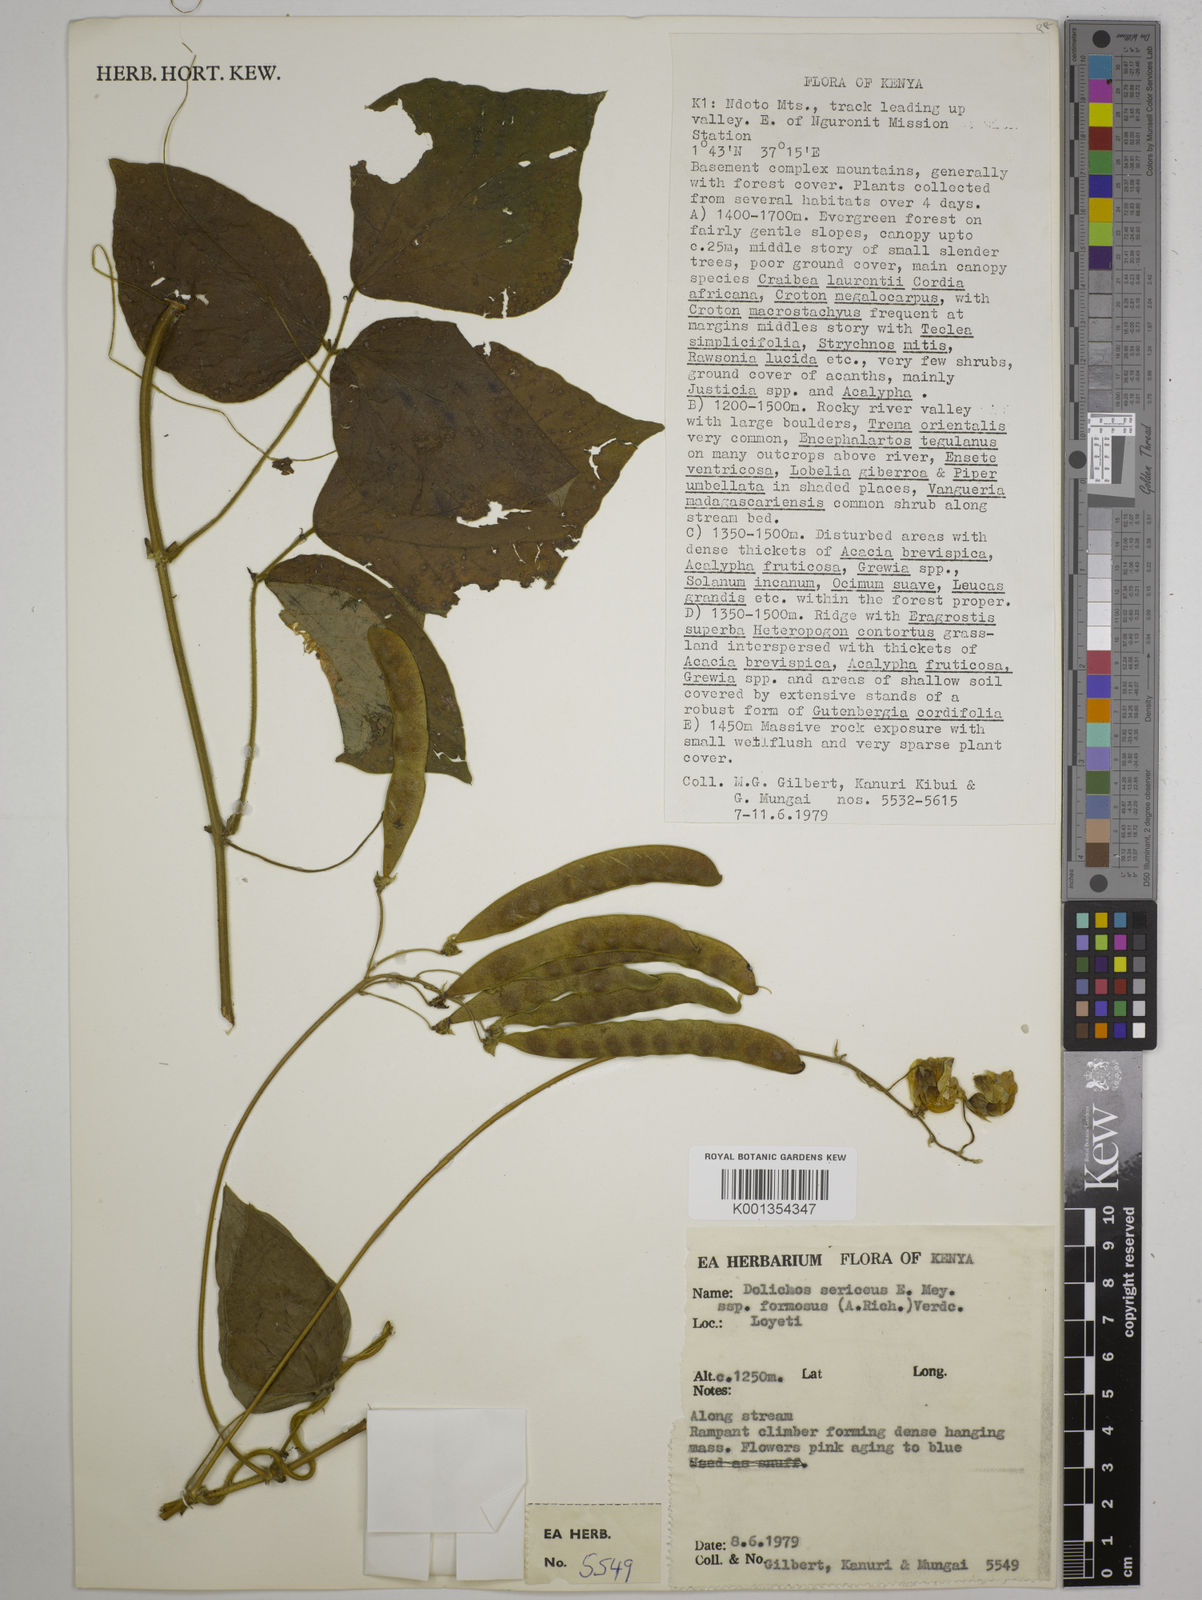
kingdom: Plantae
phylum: Tracheophyta
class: Magnoliopsida
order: Fabales
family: Fabaceae
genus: Dolichos
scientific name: Dolichos
